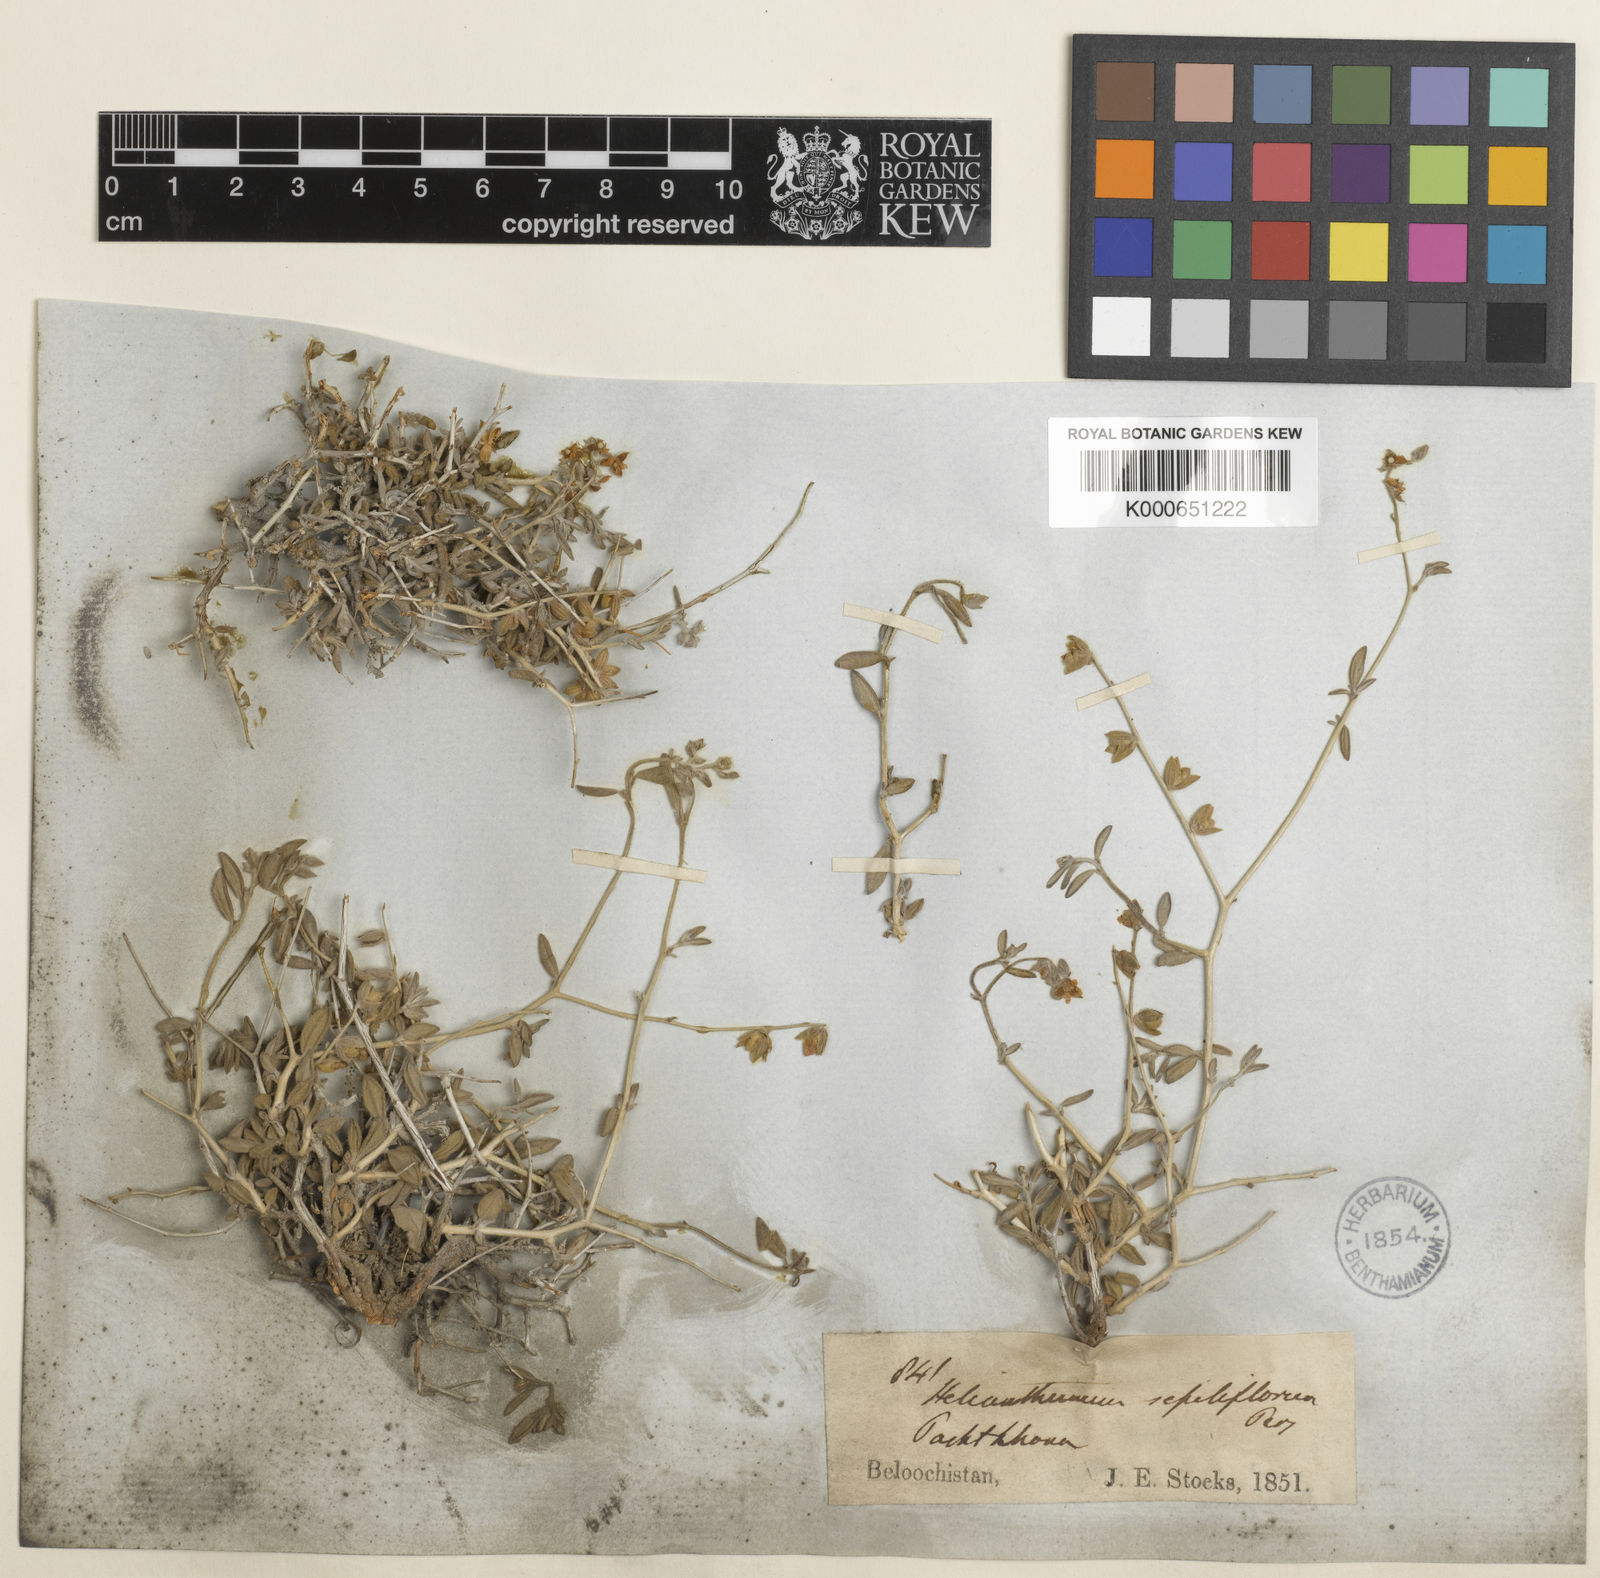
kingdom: Plantae
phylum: Tracheophyta
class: Magnoliopsida
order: Malvales
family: Cistaceae
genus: Helianthemum
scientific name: Helianthemum
